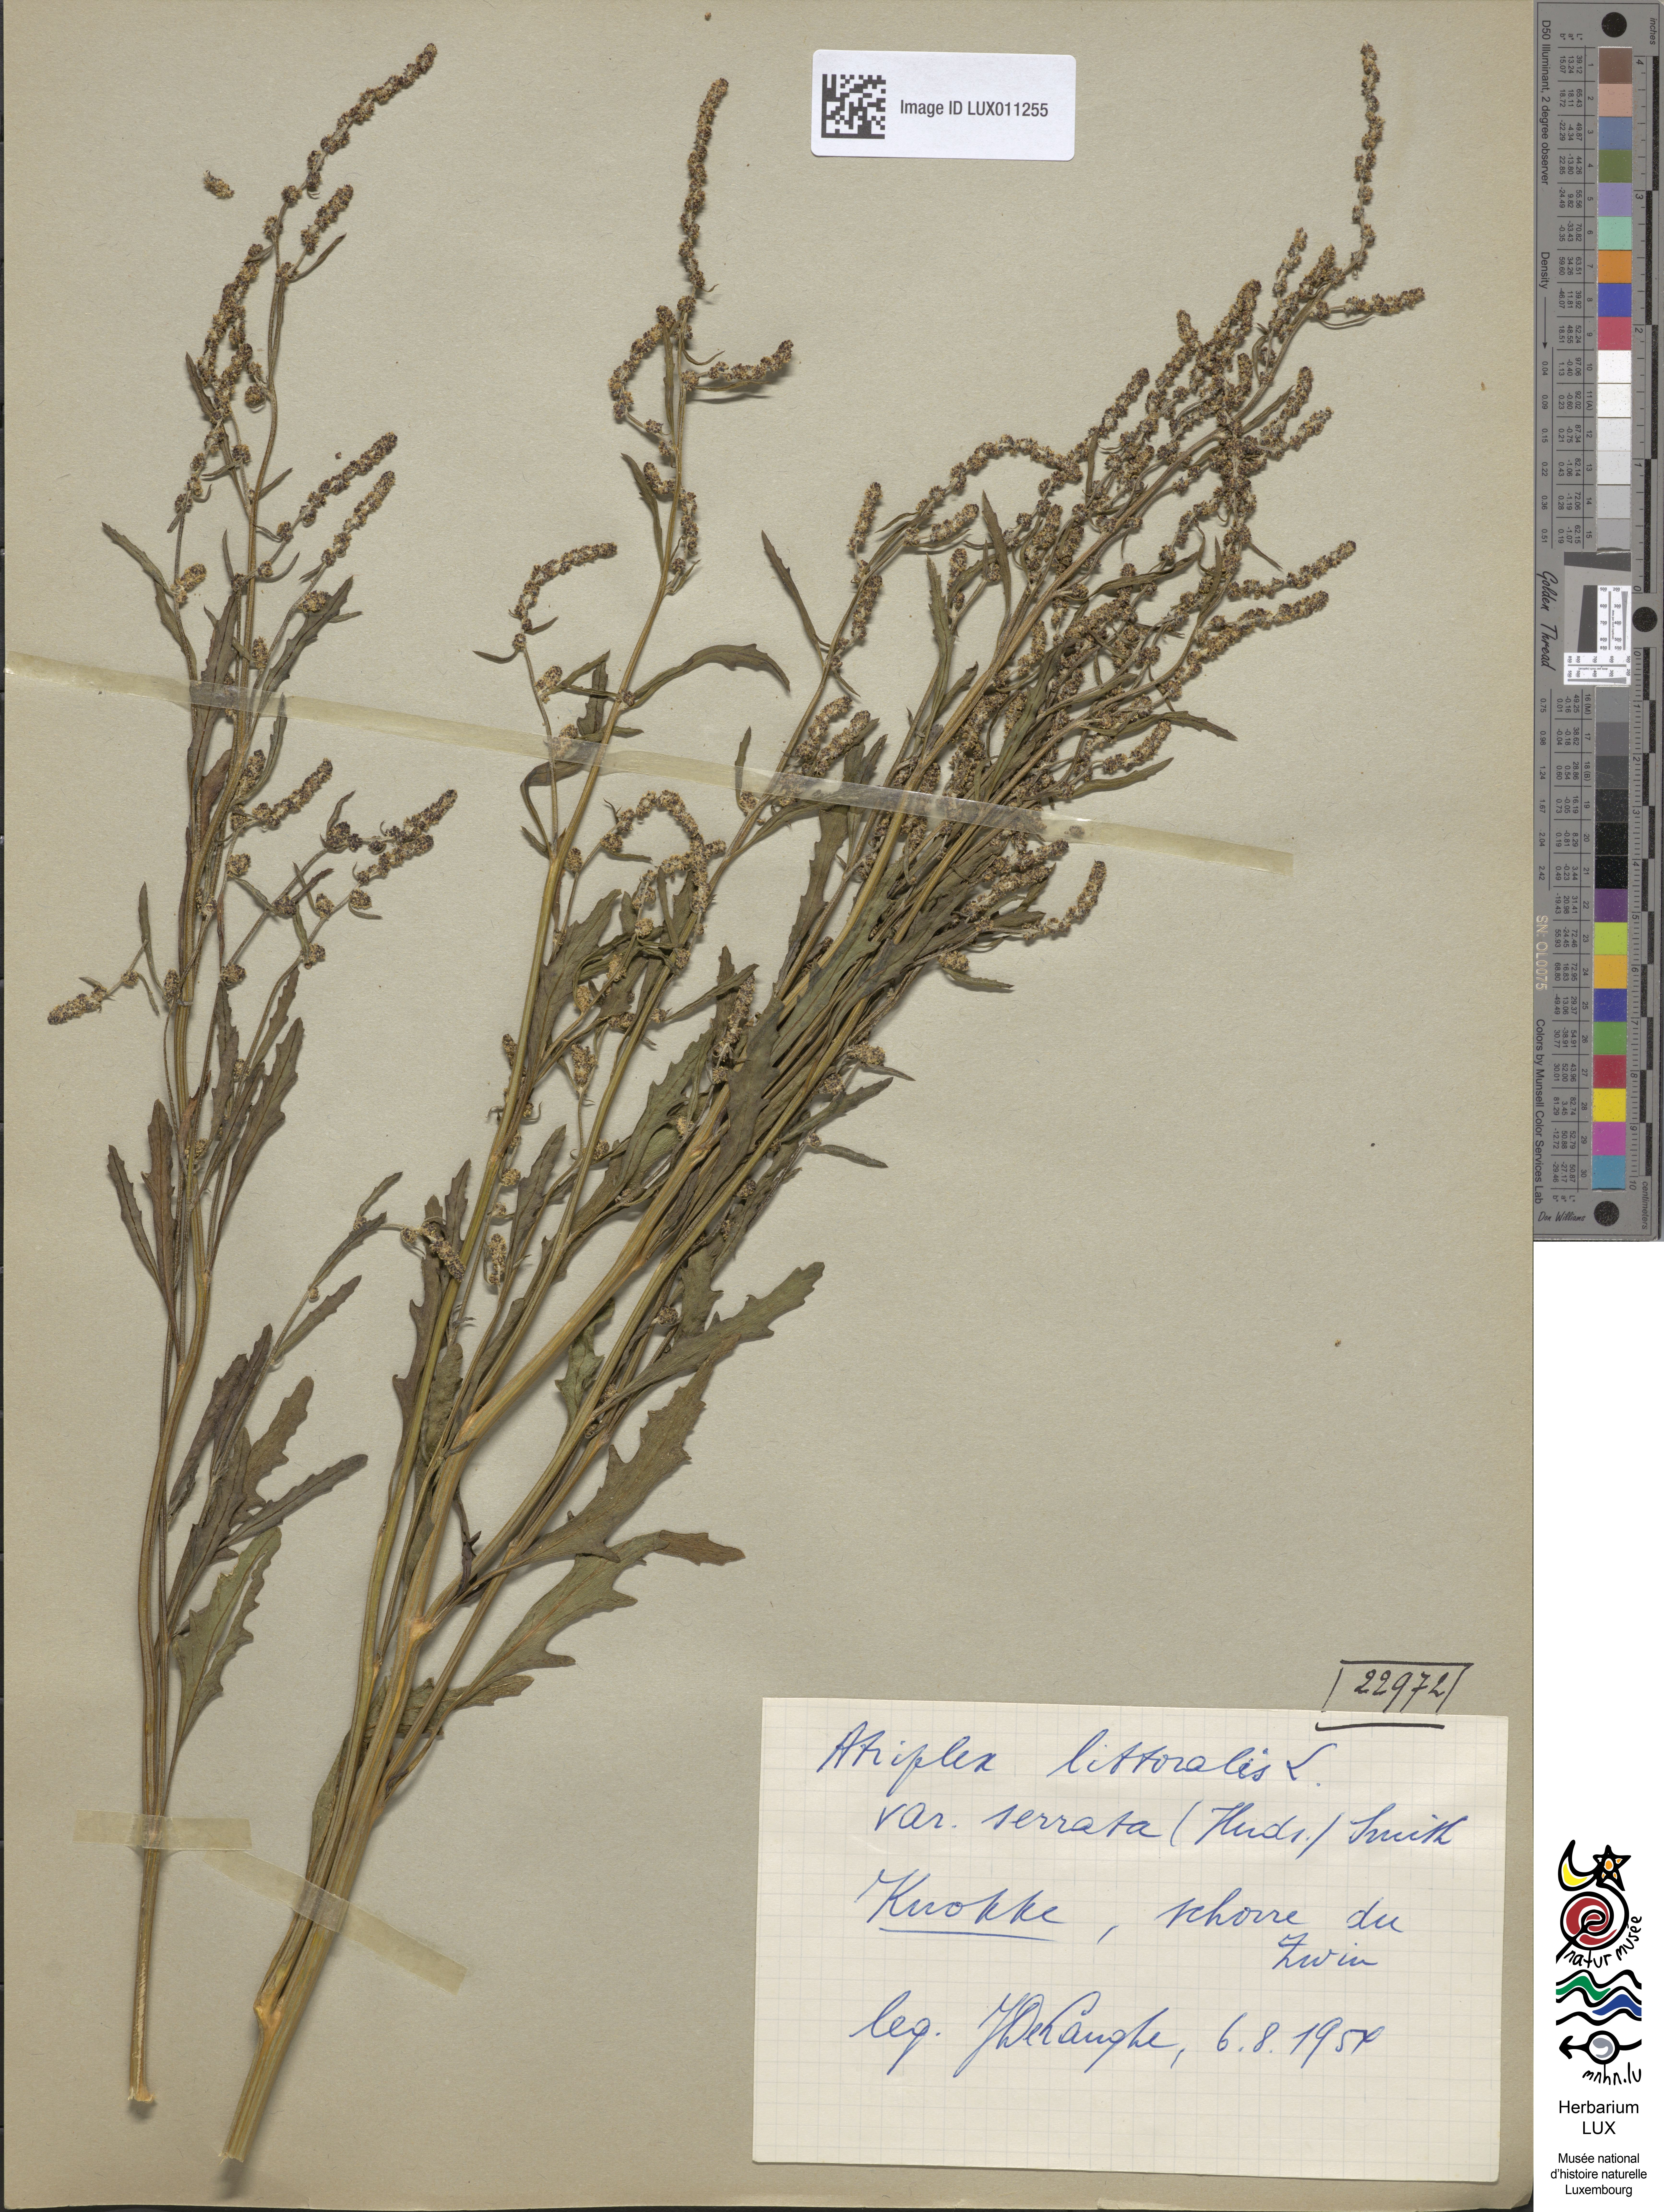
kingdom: Plantae
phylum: Tracheophyta
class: Magnoliopsida
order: Caryophyllales
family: Amaranthaceae
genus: Atriplex
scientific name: Atriplex littoralis
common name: Grass-leaved orache
